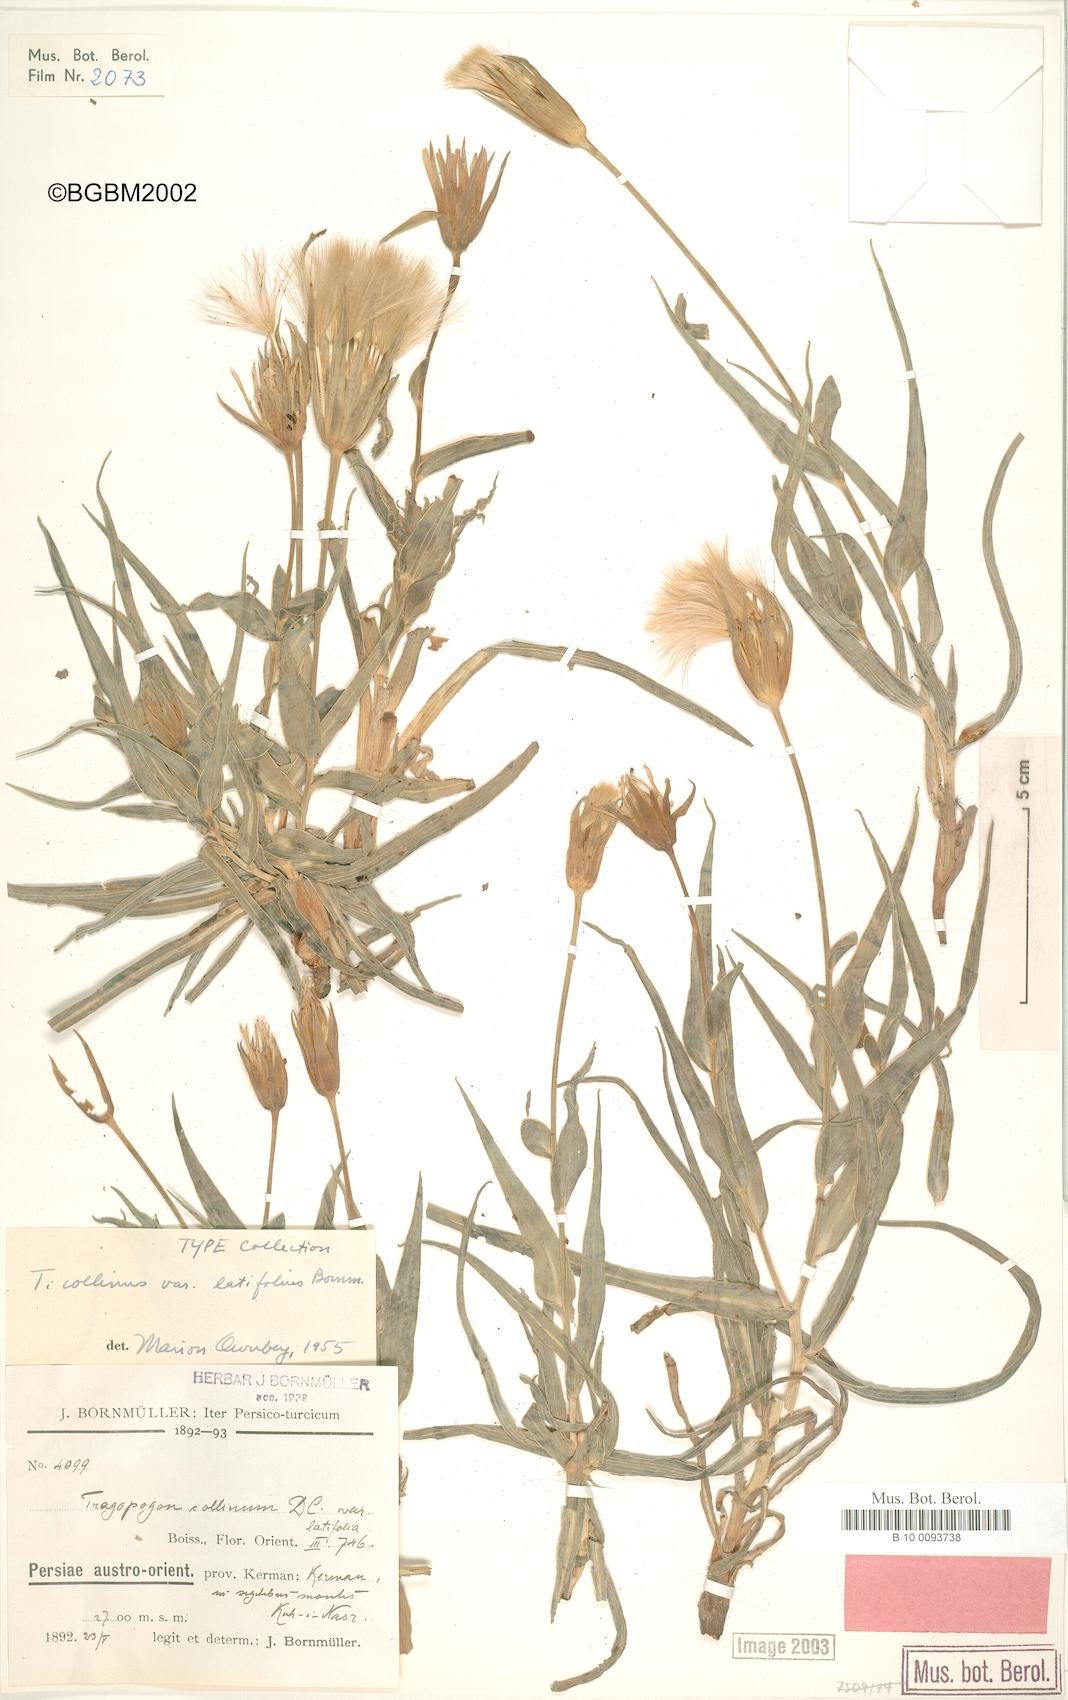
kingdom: Plantae
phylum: Tracheophyta
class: Magnoliopsida
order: Asterales
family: Asteraceae
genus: Tragopogon
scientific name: Tragopogon collinus
